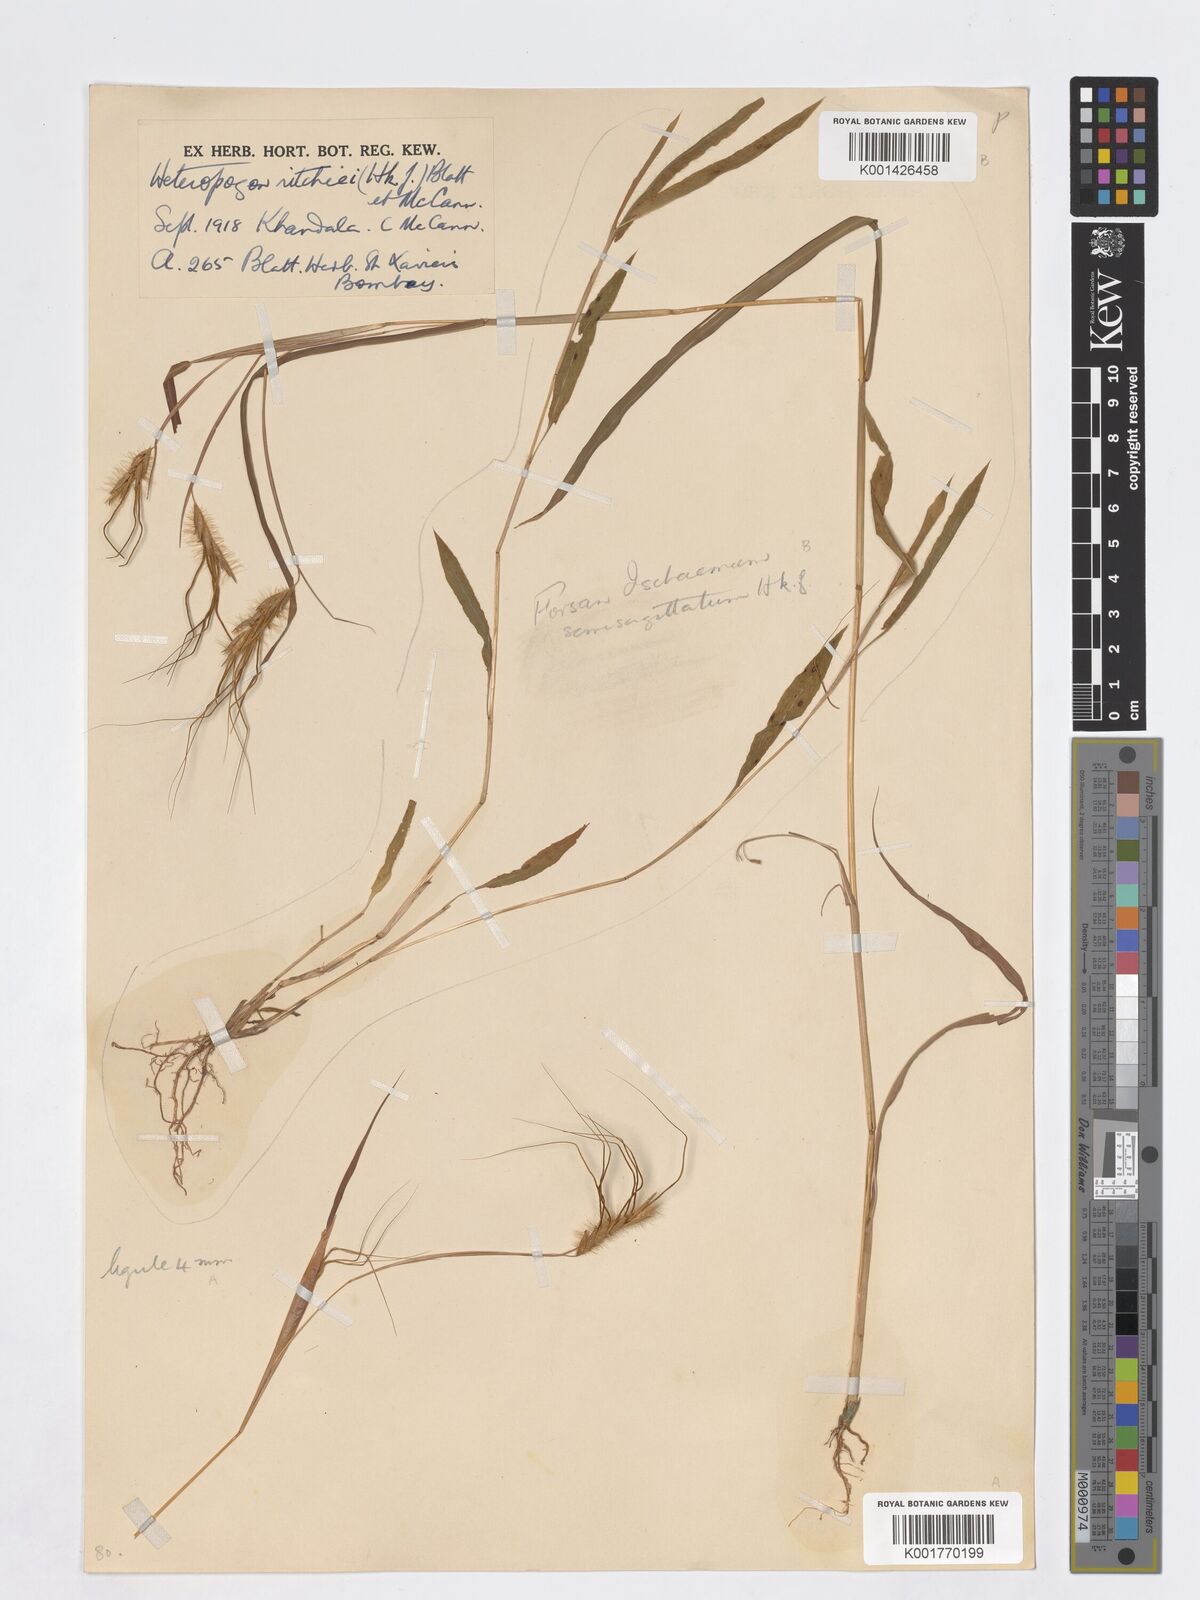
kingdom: Plantae
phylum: Tracheophyta
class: Liliopsida
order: Poales
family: Poaceae
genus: Heteropogon
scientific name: Heteropogon ritchiei
